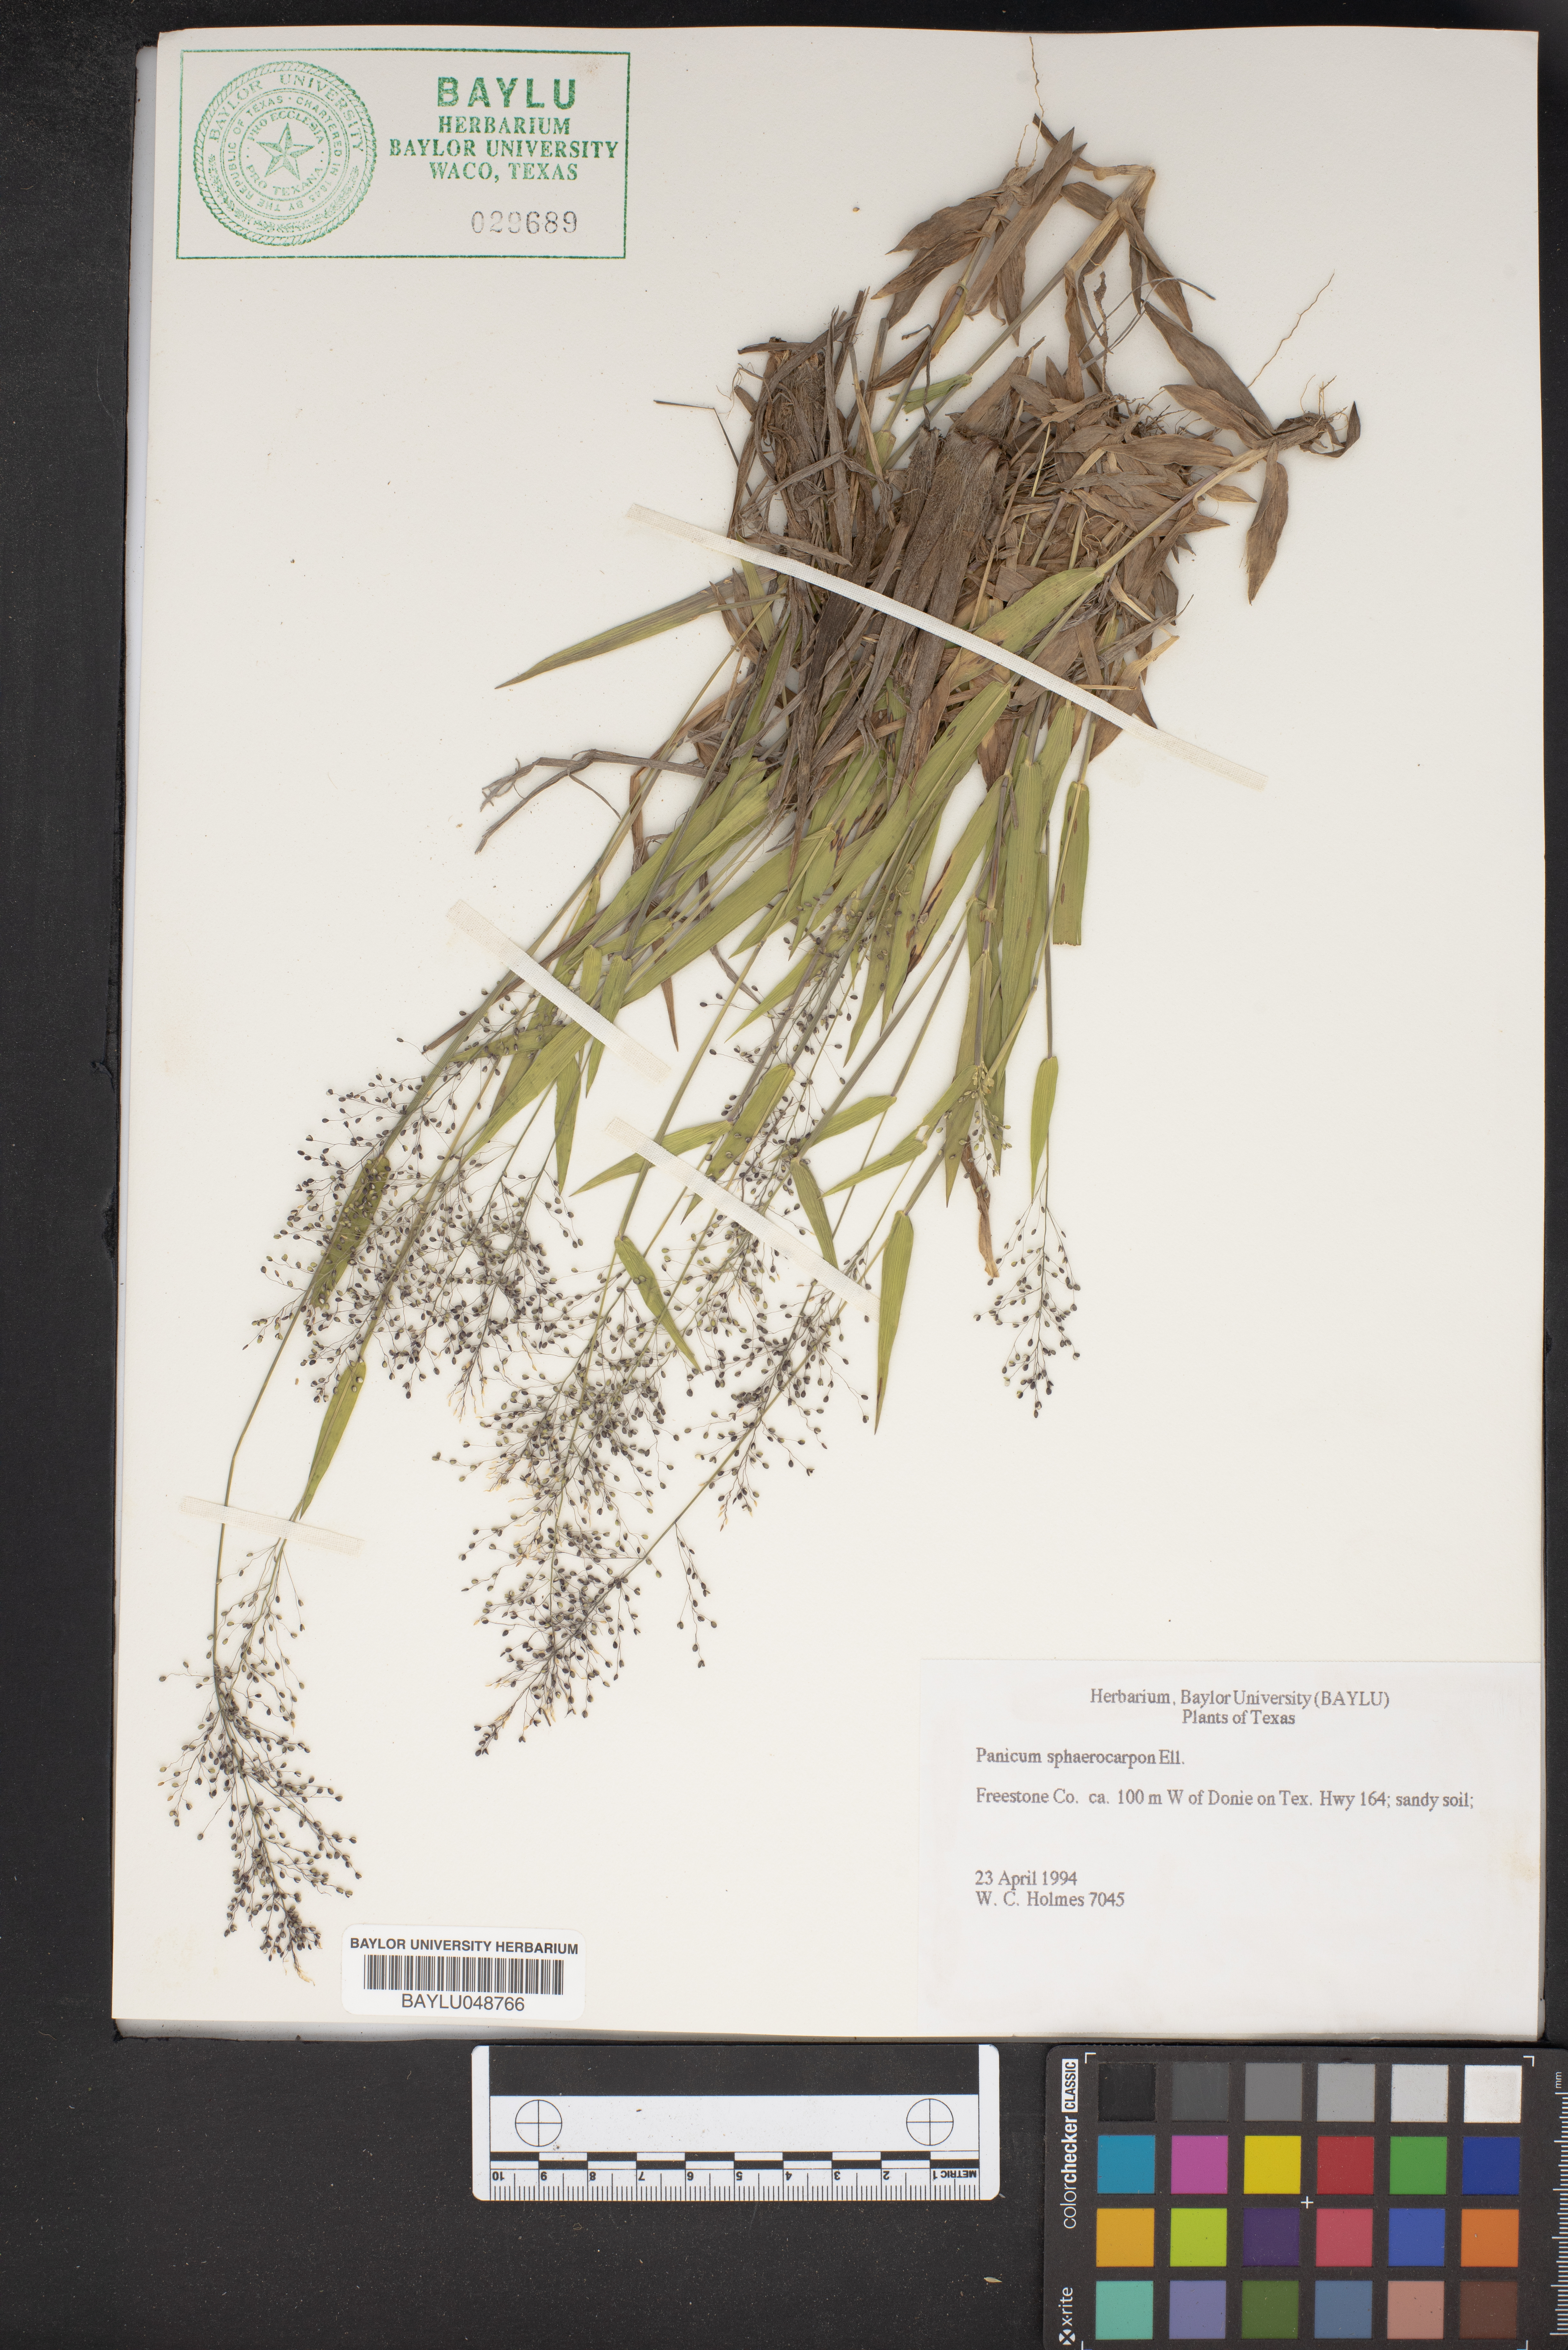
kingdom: Plantae
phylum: Tracheophyta
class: Liliopsida
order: Poales
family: Poaceae
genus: Dichanthelium
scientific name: Dichanthelium sphaerocarpon
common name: Round-fruited panicgrass
